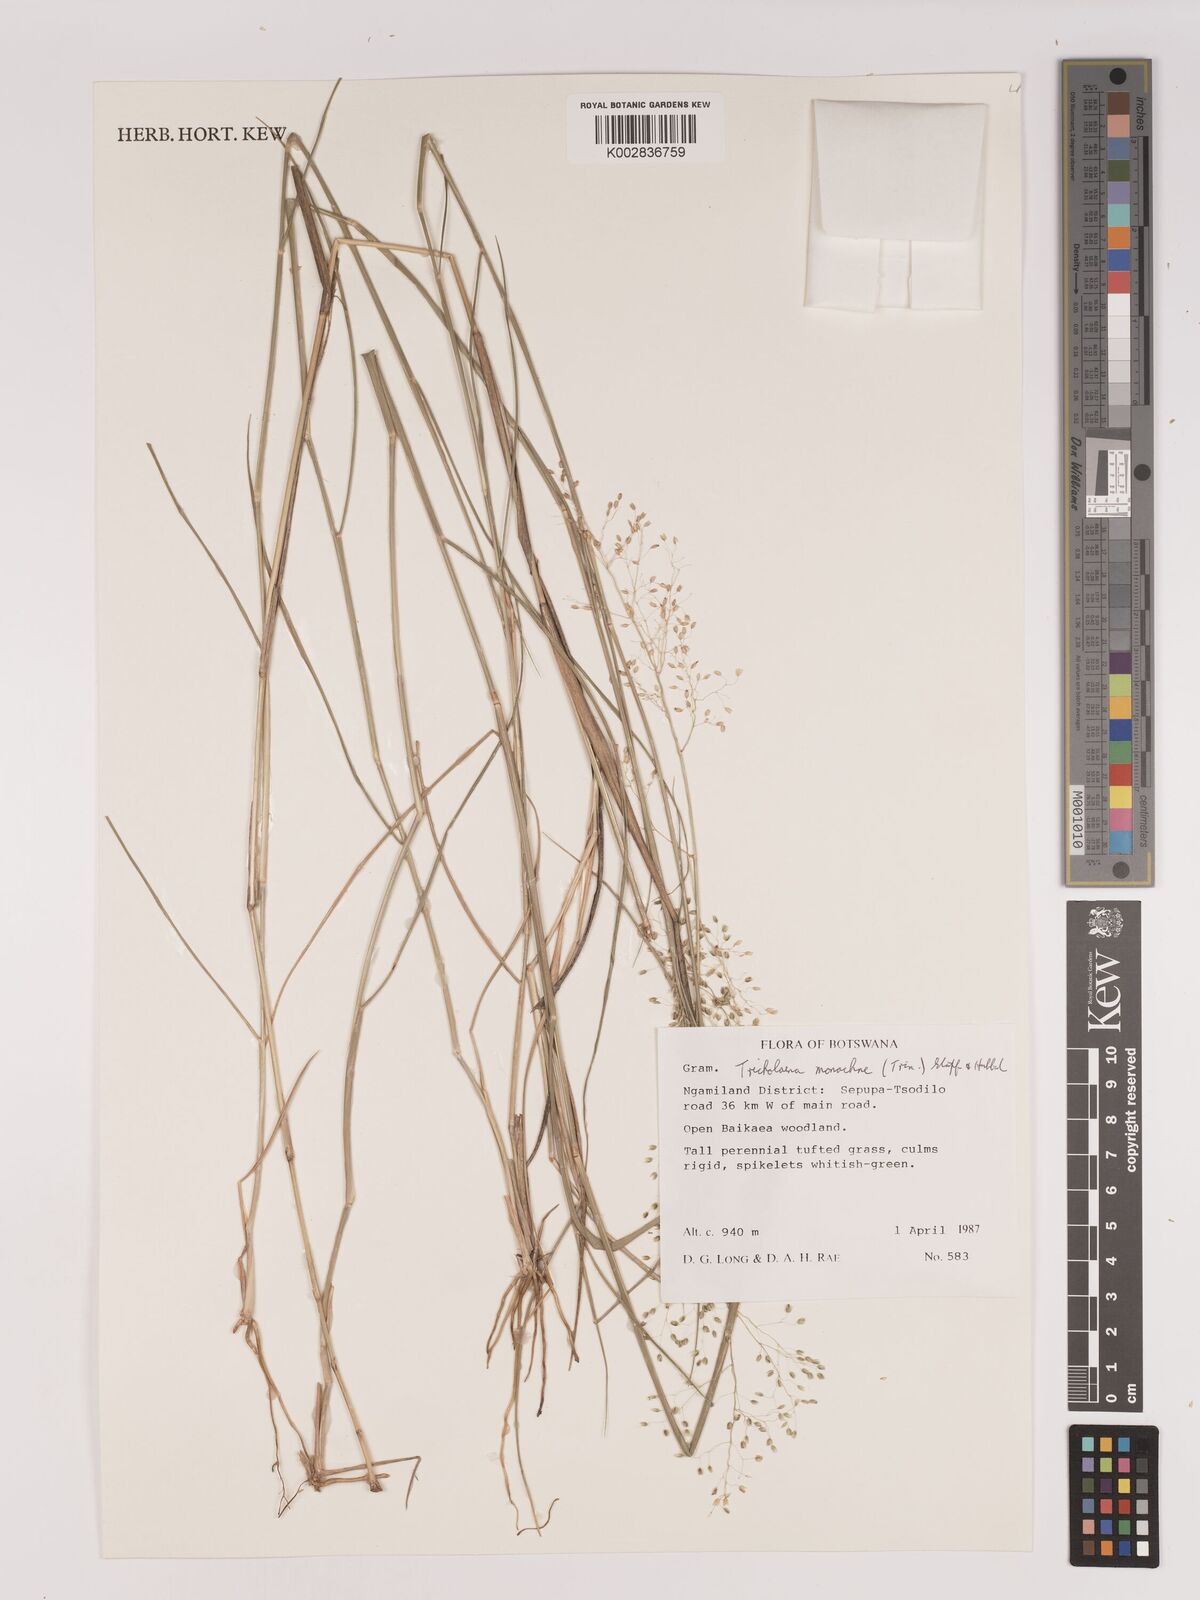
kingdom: Plantae
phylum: Tracheophyta
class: Liliopsida
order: Poales
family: Poaceae
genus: Tricholaena
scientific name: Tricholaena monachne
